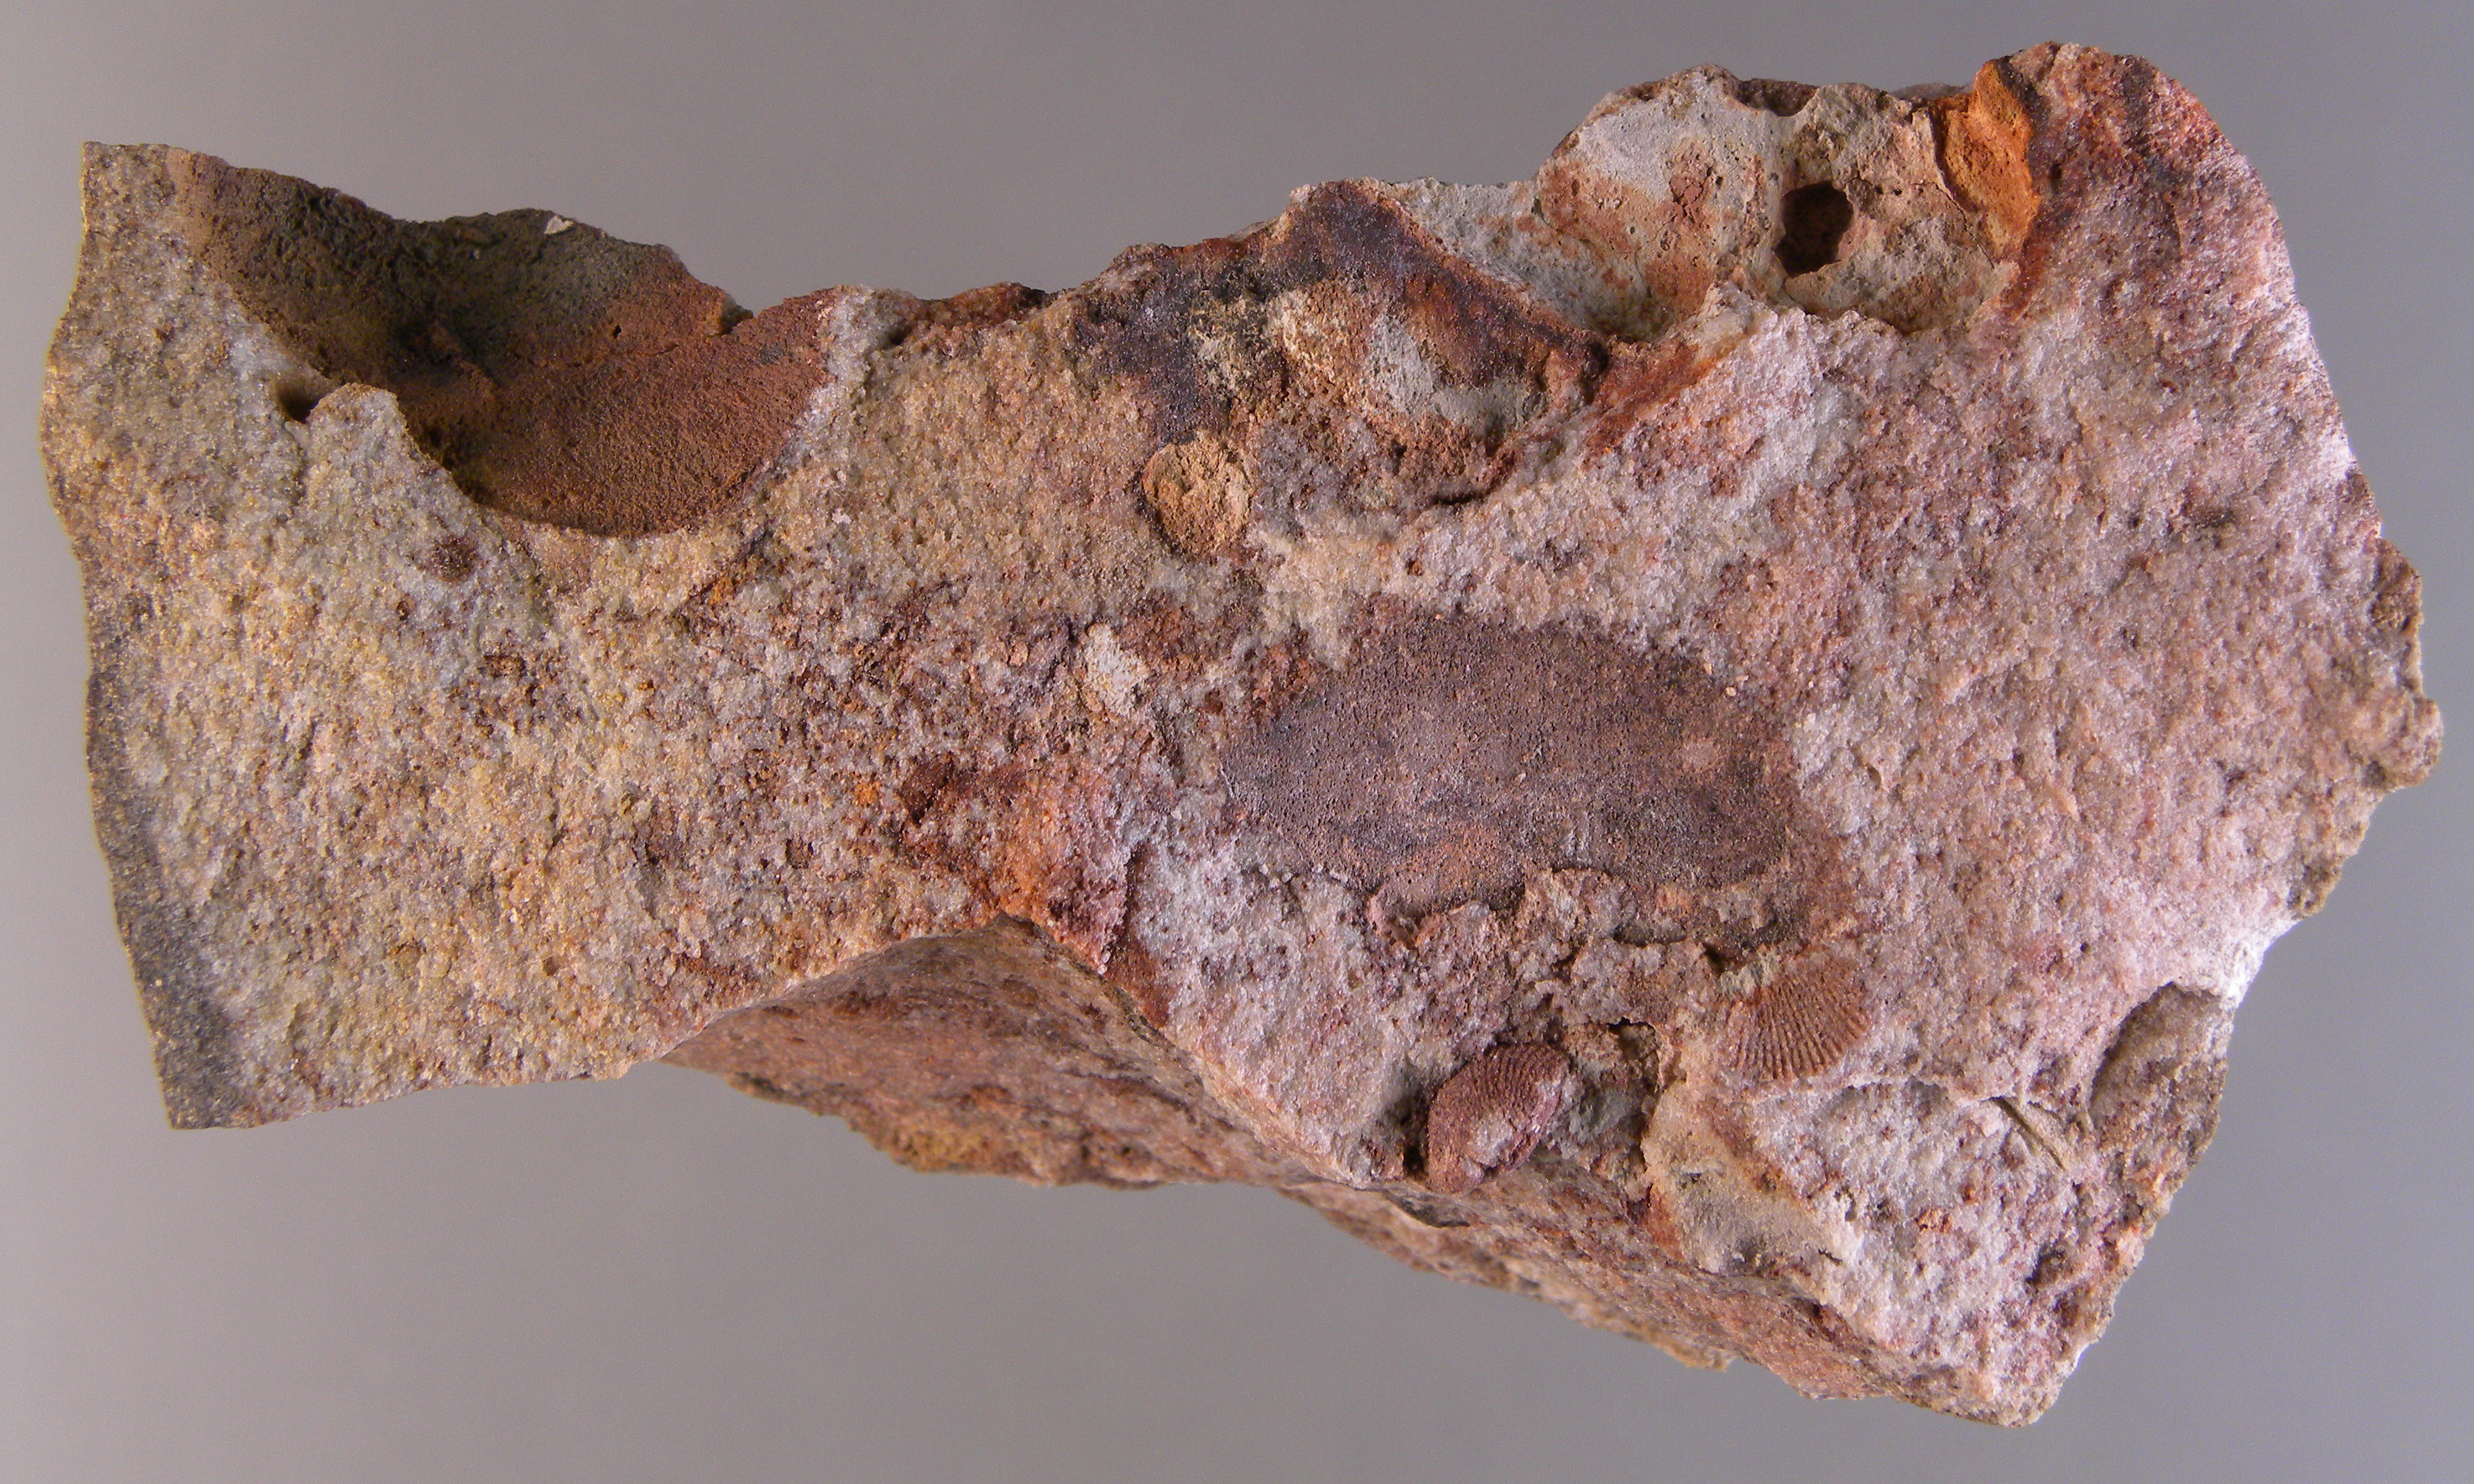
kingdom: Animalia
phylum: Annelida
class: Polychaeta
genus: Vermiforafacta
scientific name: Vermiforafacta
